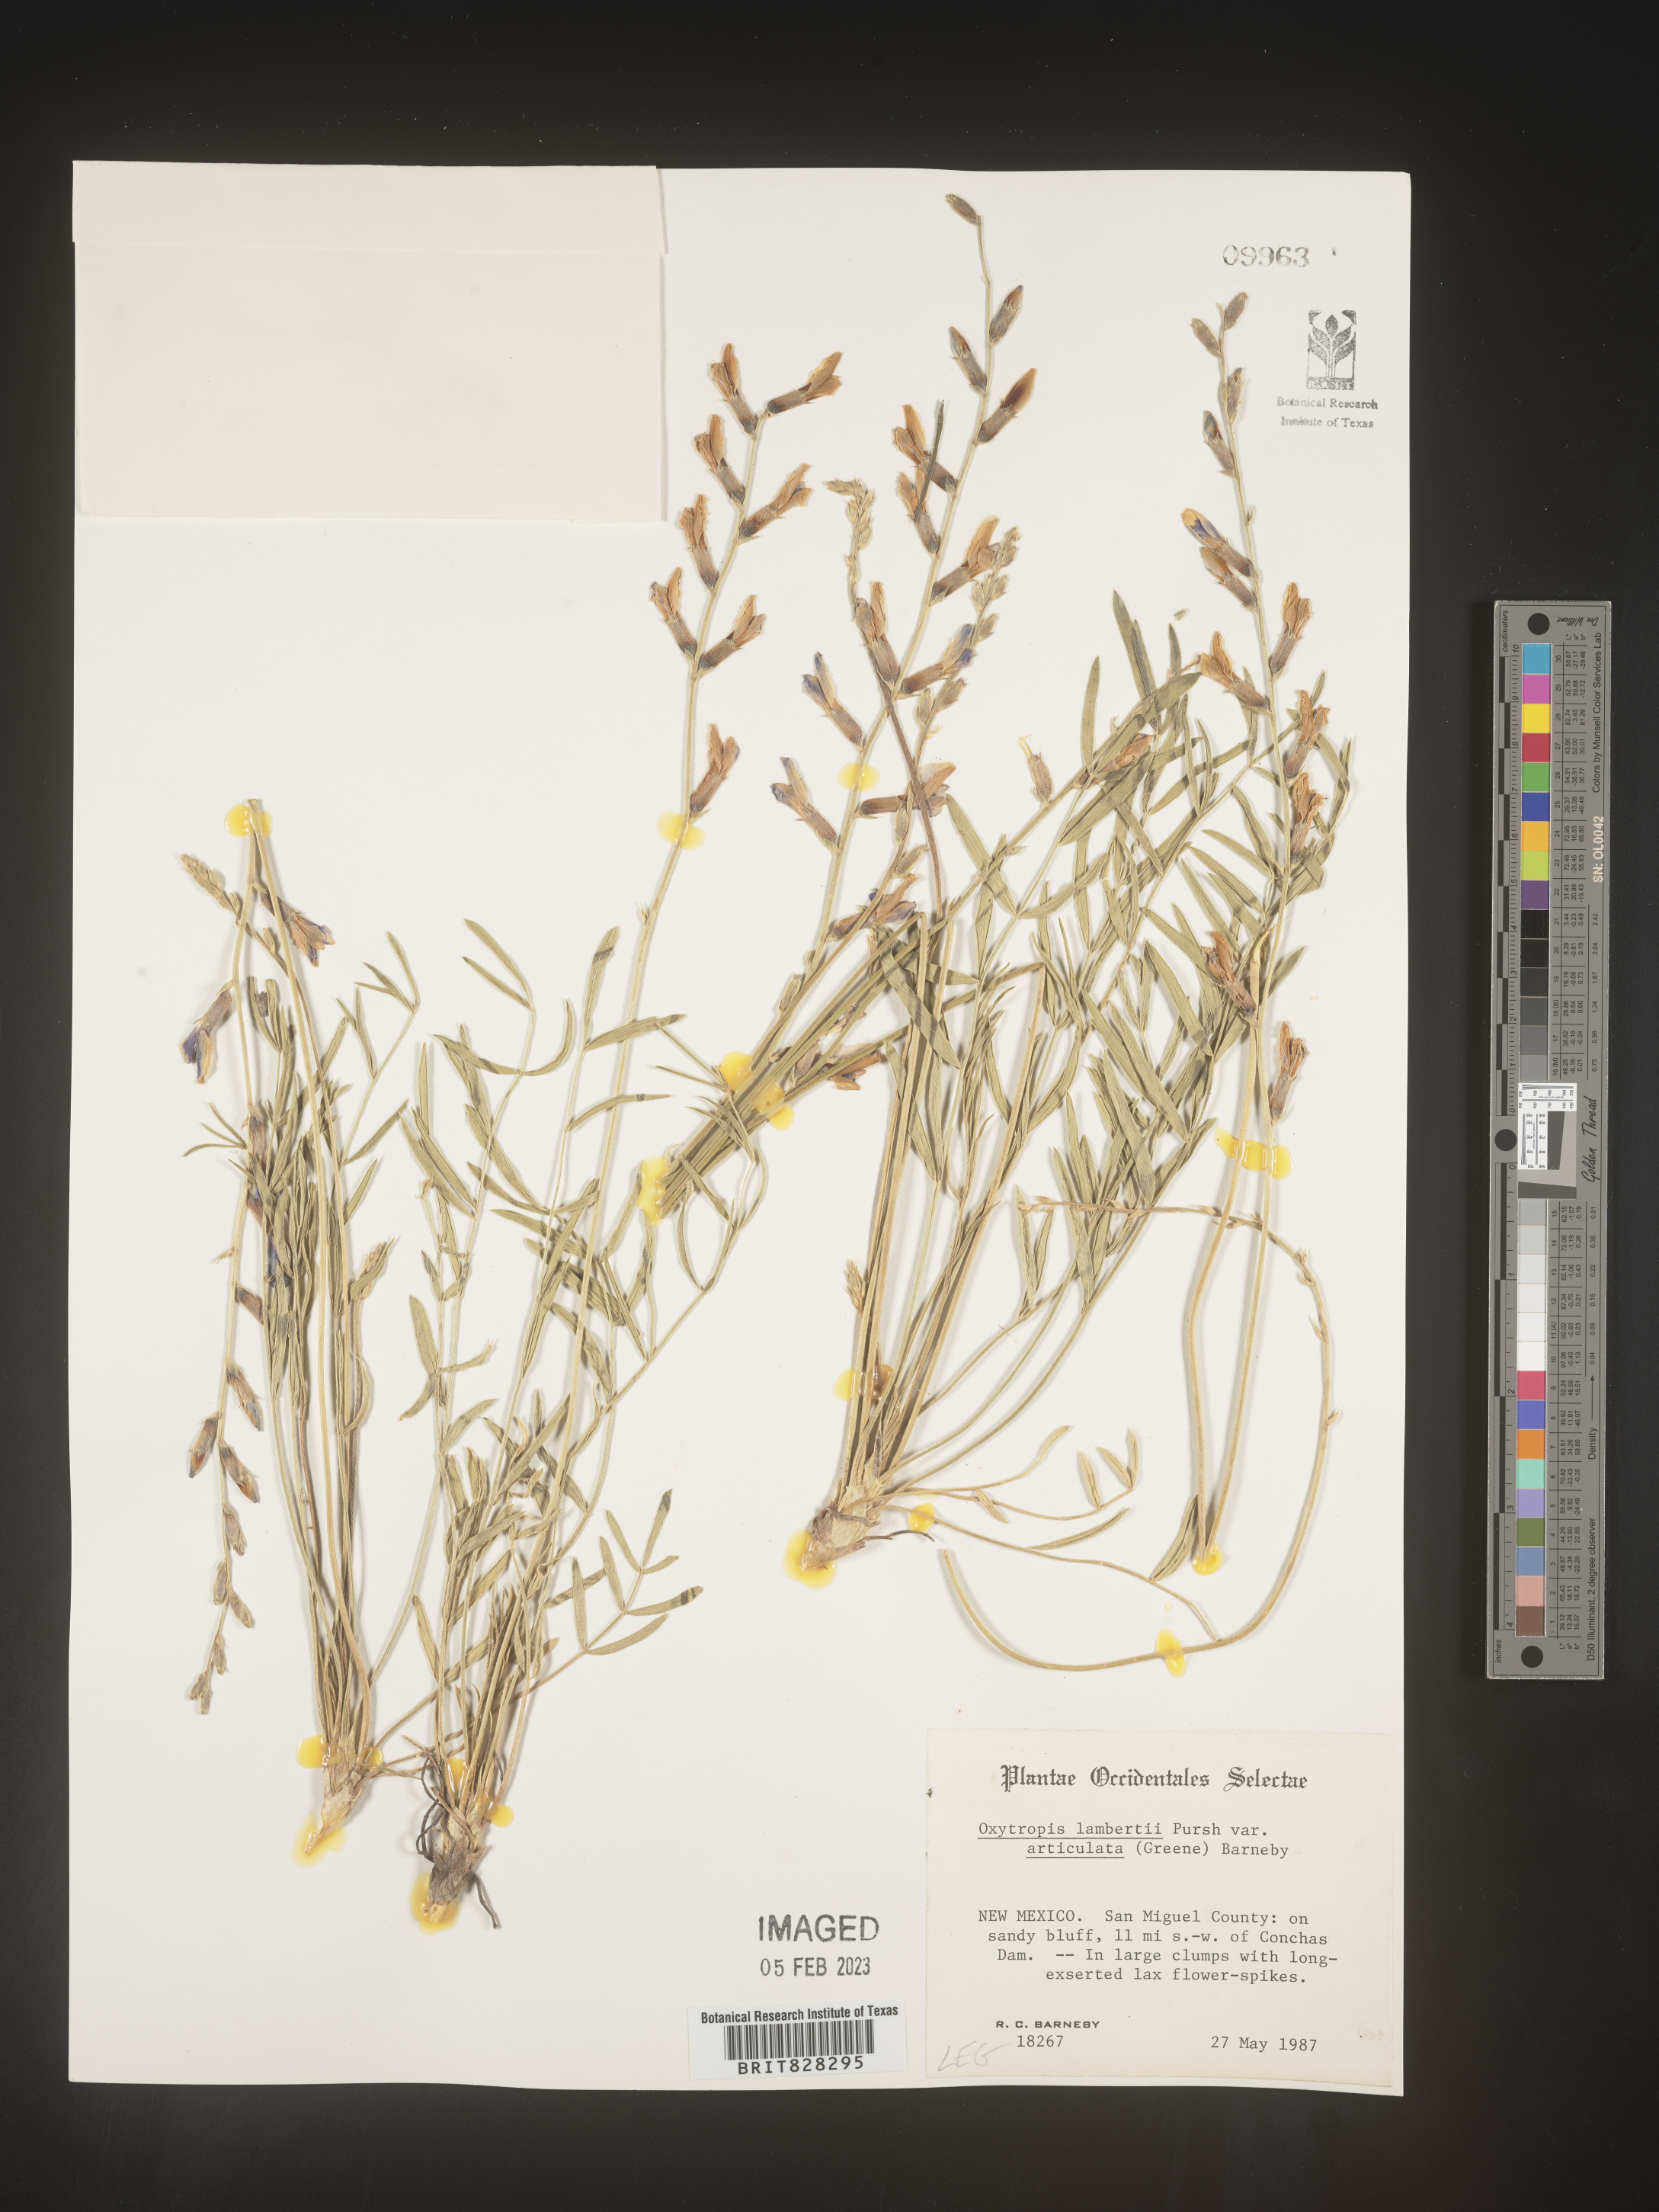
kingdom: Plantae
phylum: Tracheophyta
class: Magnoliopsida
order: Fabales
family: Fabaceae
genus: Oxytropis
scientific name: Oxytropis lambertii
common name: Purple locoweed
